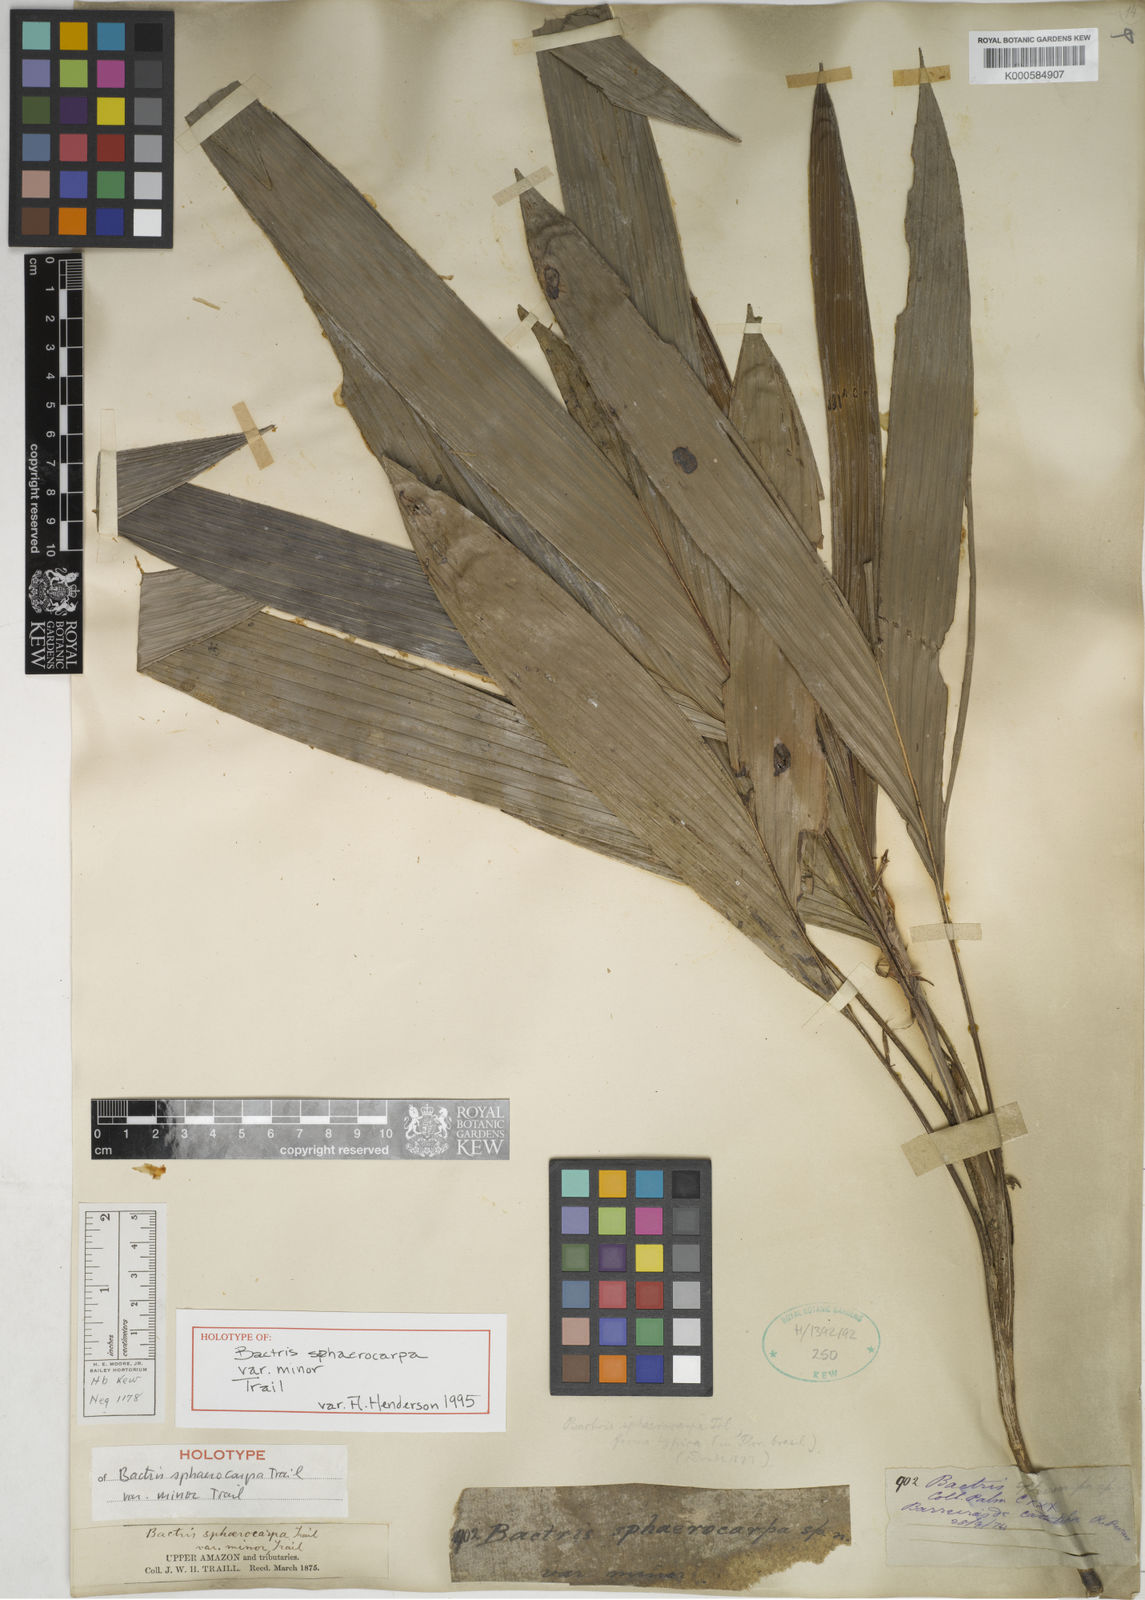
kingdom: Plantae
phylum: Tracheophyta
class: Liliopsida
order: Arecales
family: Arecaceae
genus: Bactris
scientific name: Bactris sphaerocarpa
